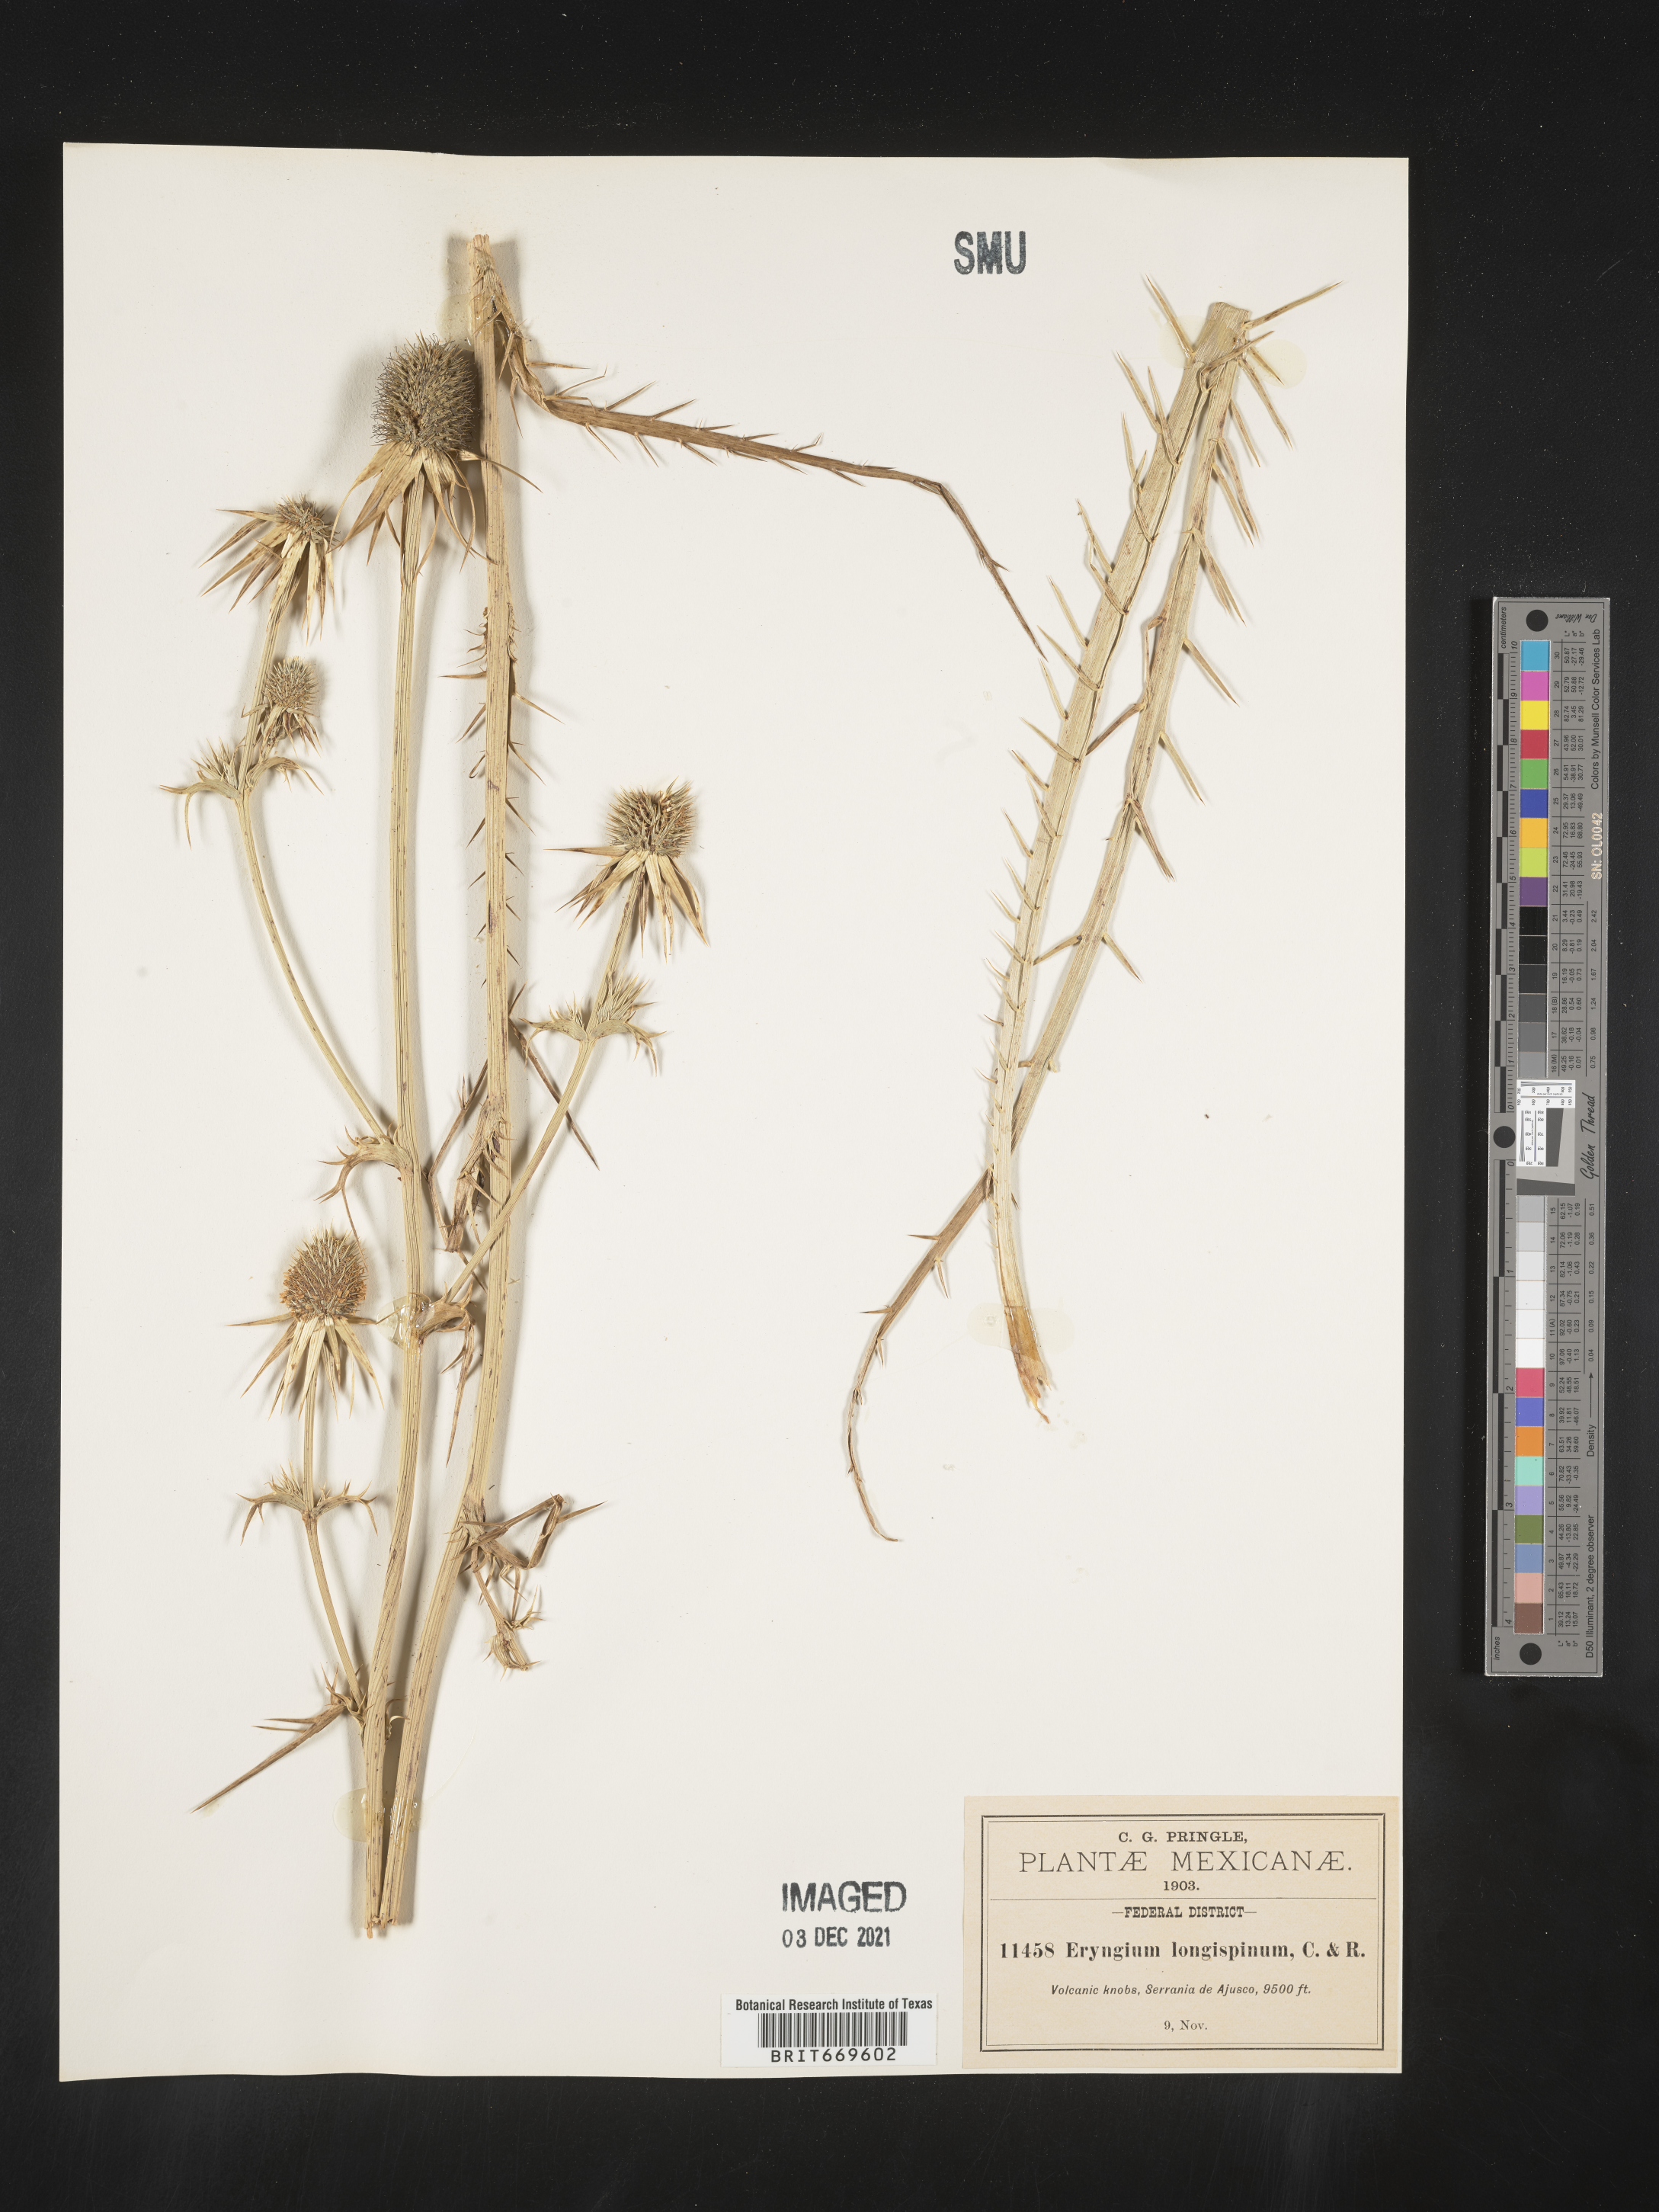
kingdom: Plantae
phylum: Tracheophyta
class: Magnoliopsida
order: Apiales
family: Apiaceae
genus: Eryngium
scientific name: Eryngium
